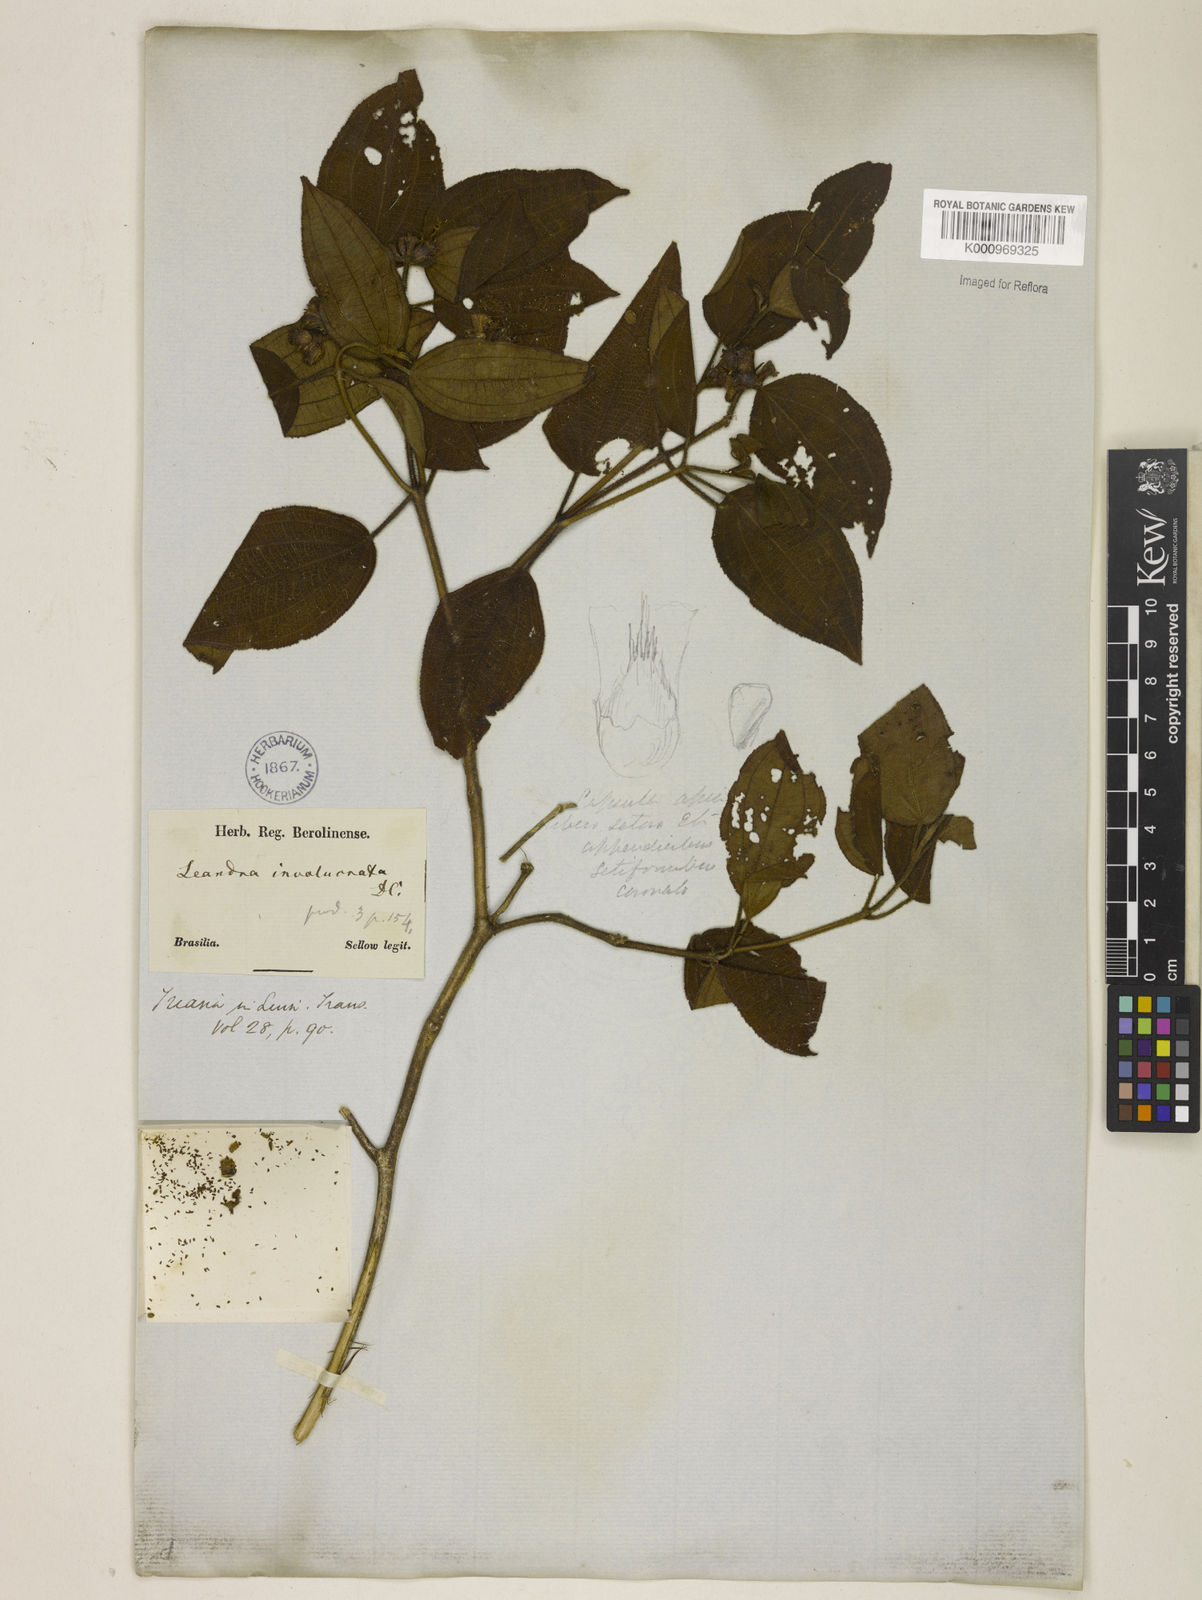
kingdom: Plantae
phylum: Tracheophyta
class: Magnoliopsida
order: Myrtales
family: Melastomataceae
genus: Miconia
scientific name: Miconia leaumbellata
